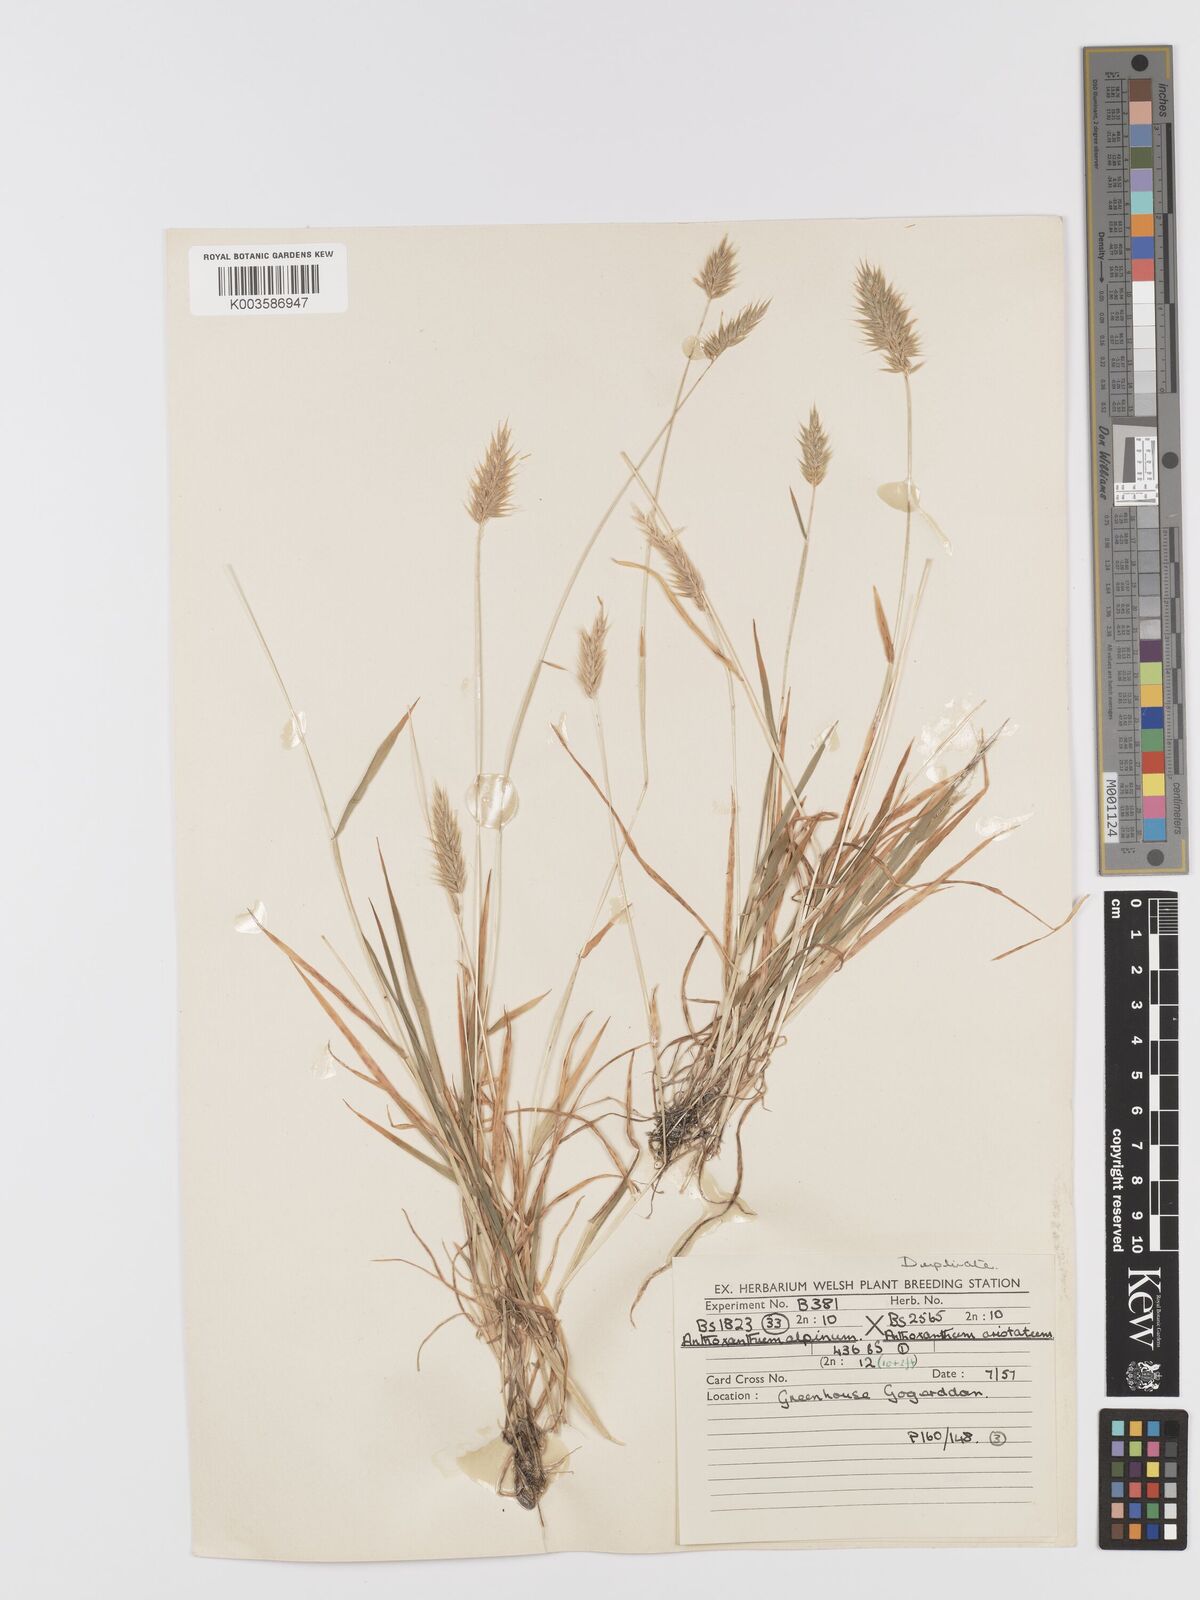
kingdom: Plantae
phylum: Tracheophyta
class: Liliopsida
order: Poales
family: Poaceae
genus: Anthoxanthum
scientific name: Anthoxanthum nipponicum
